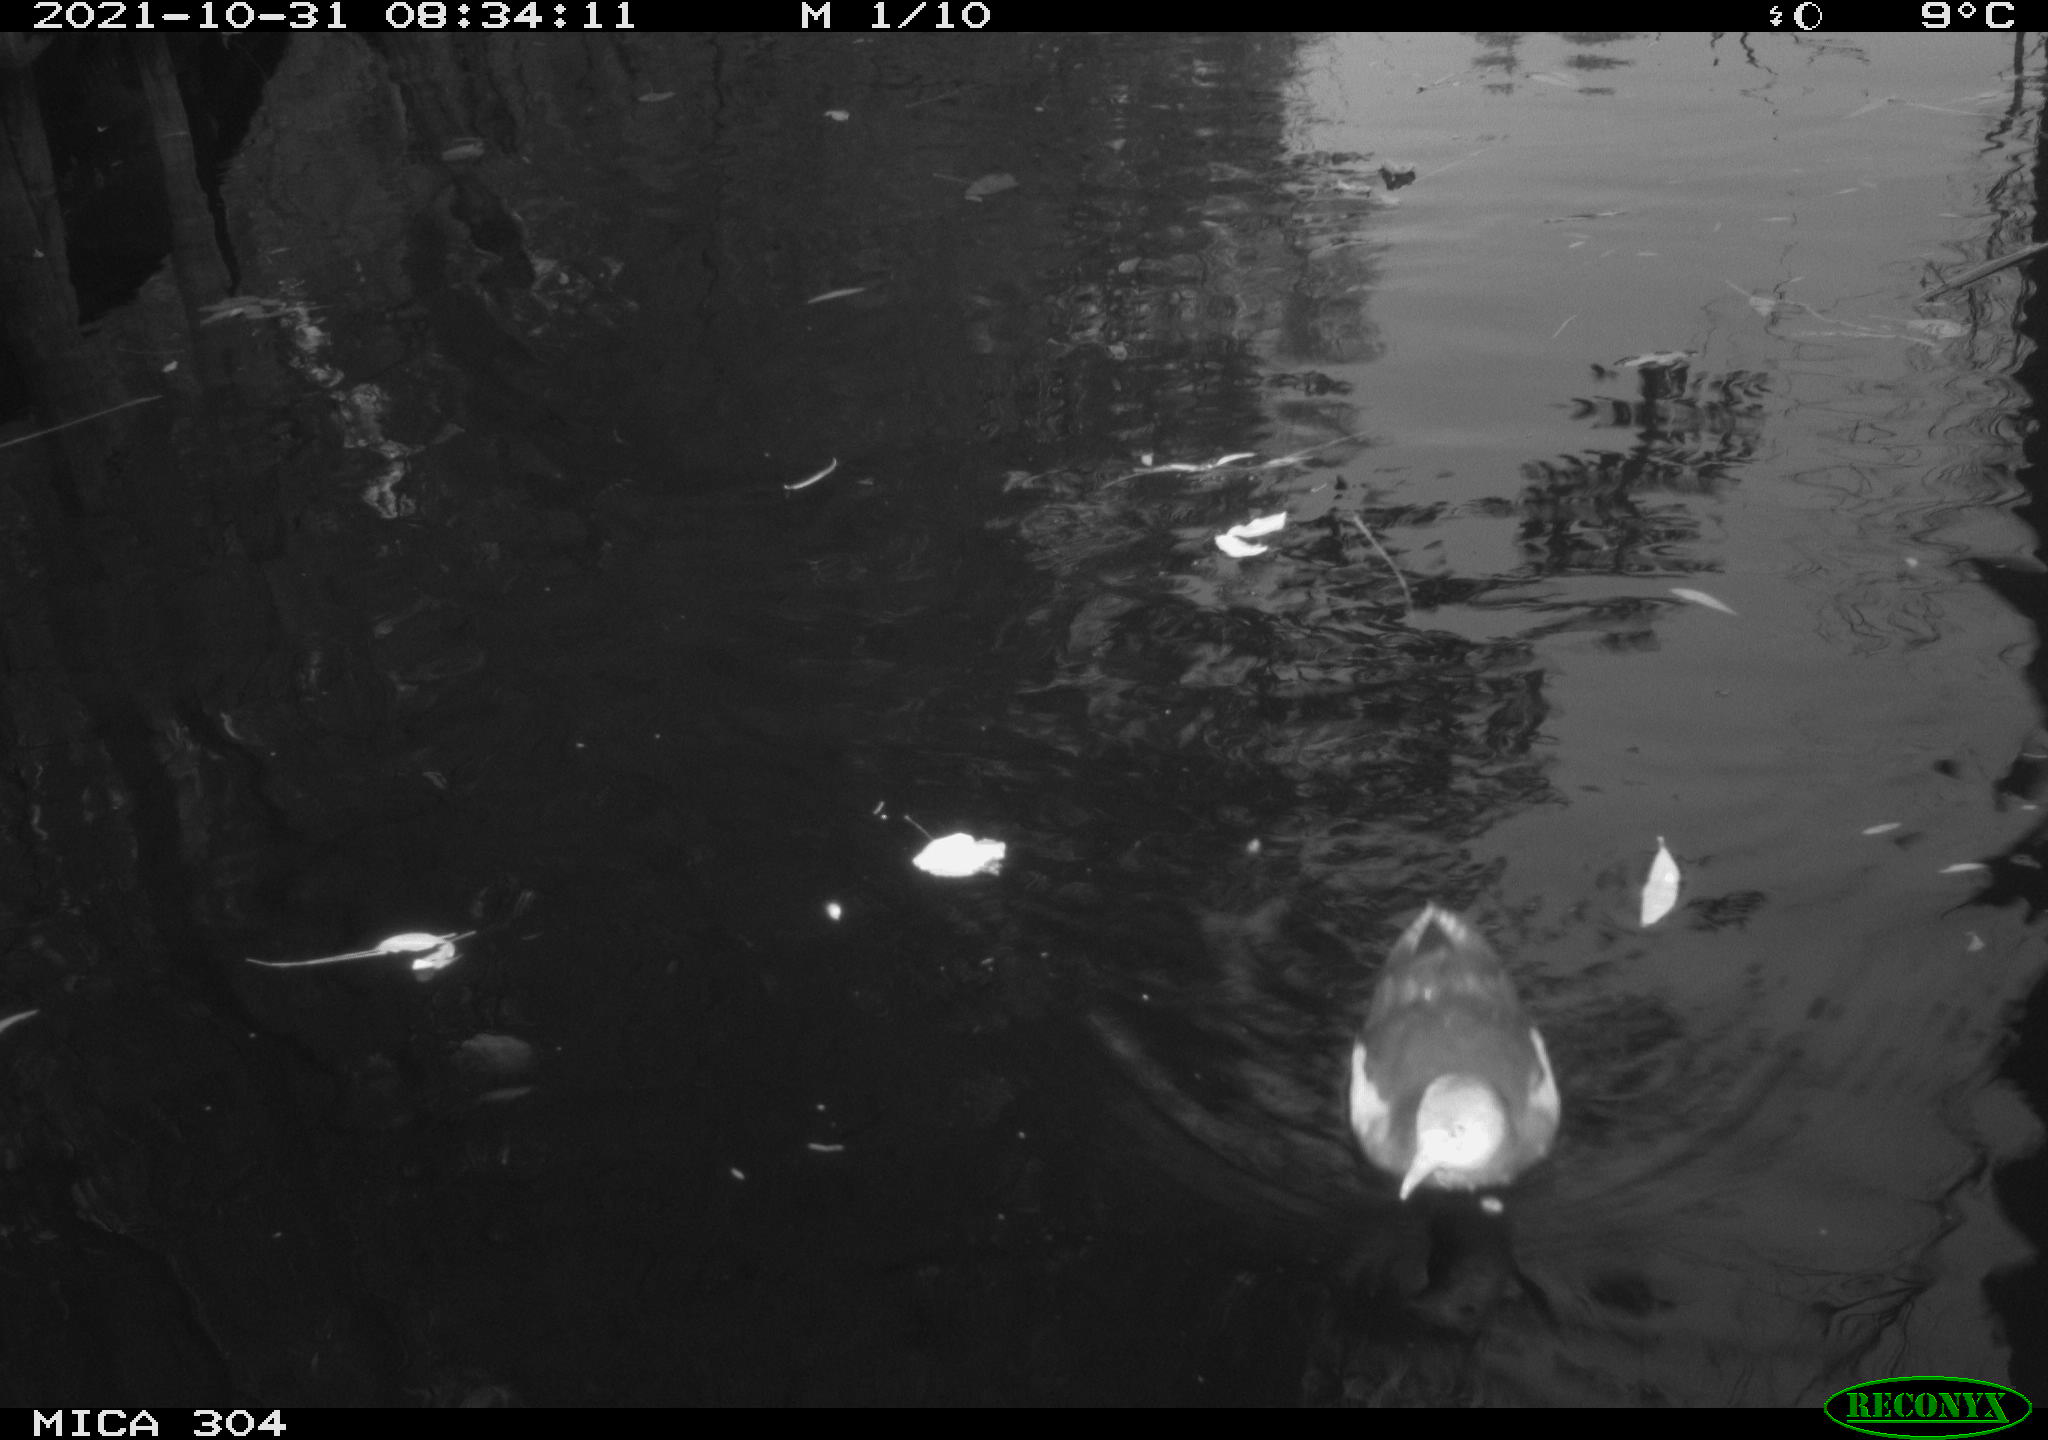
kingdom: Animalia
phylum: Chordata
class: Aves
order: Gruiformes
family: Rallidae
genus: Gallinula
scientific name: Gallinula chloropus
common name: Common moorhen
